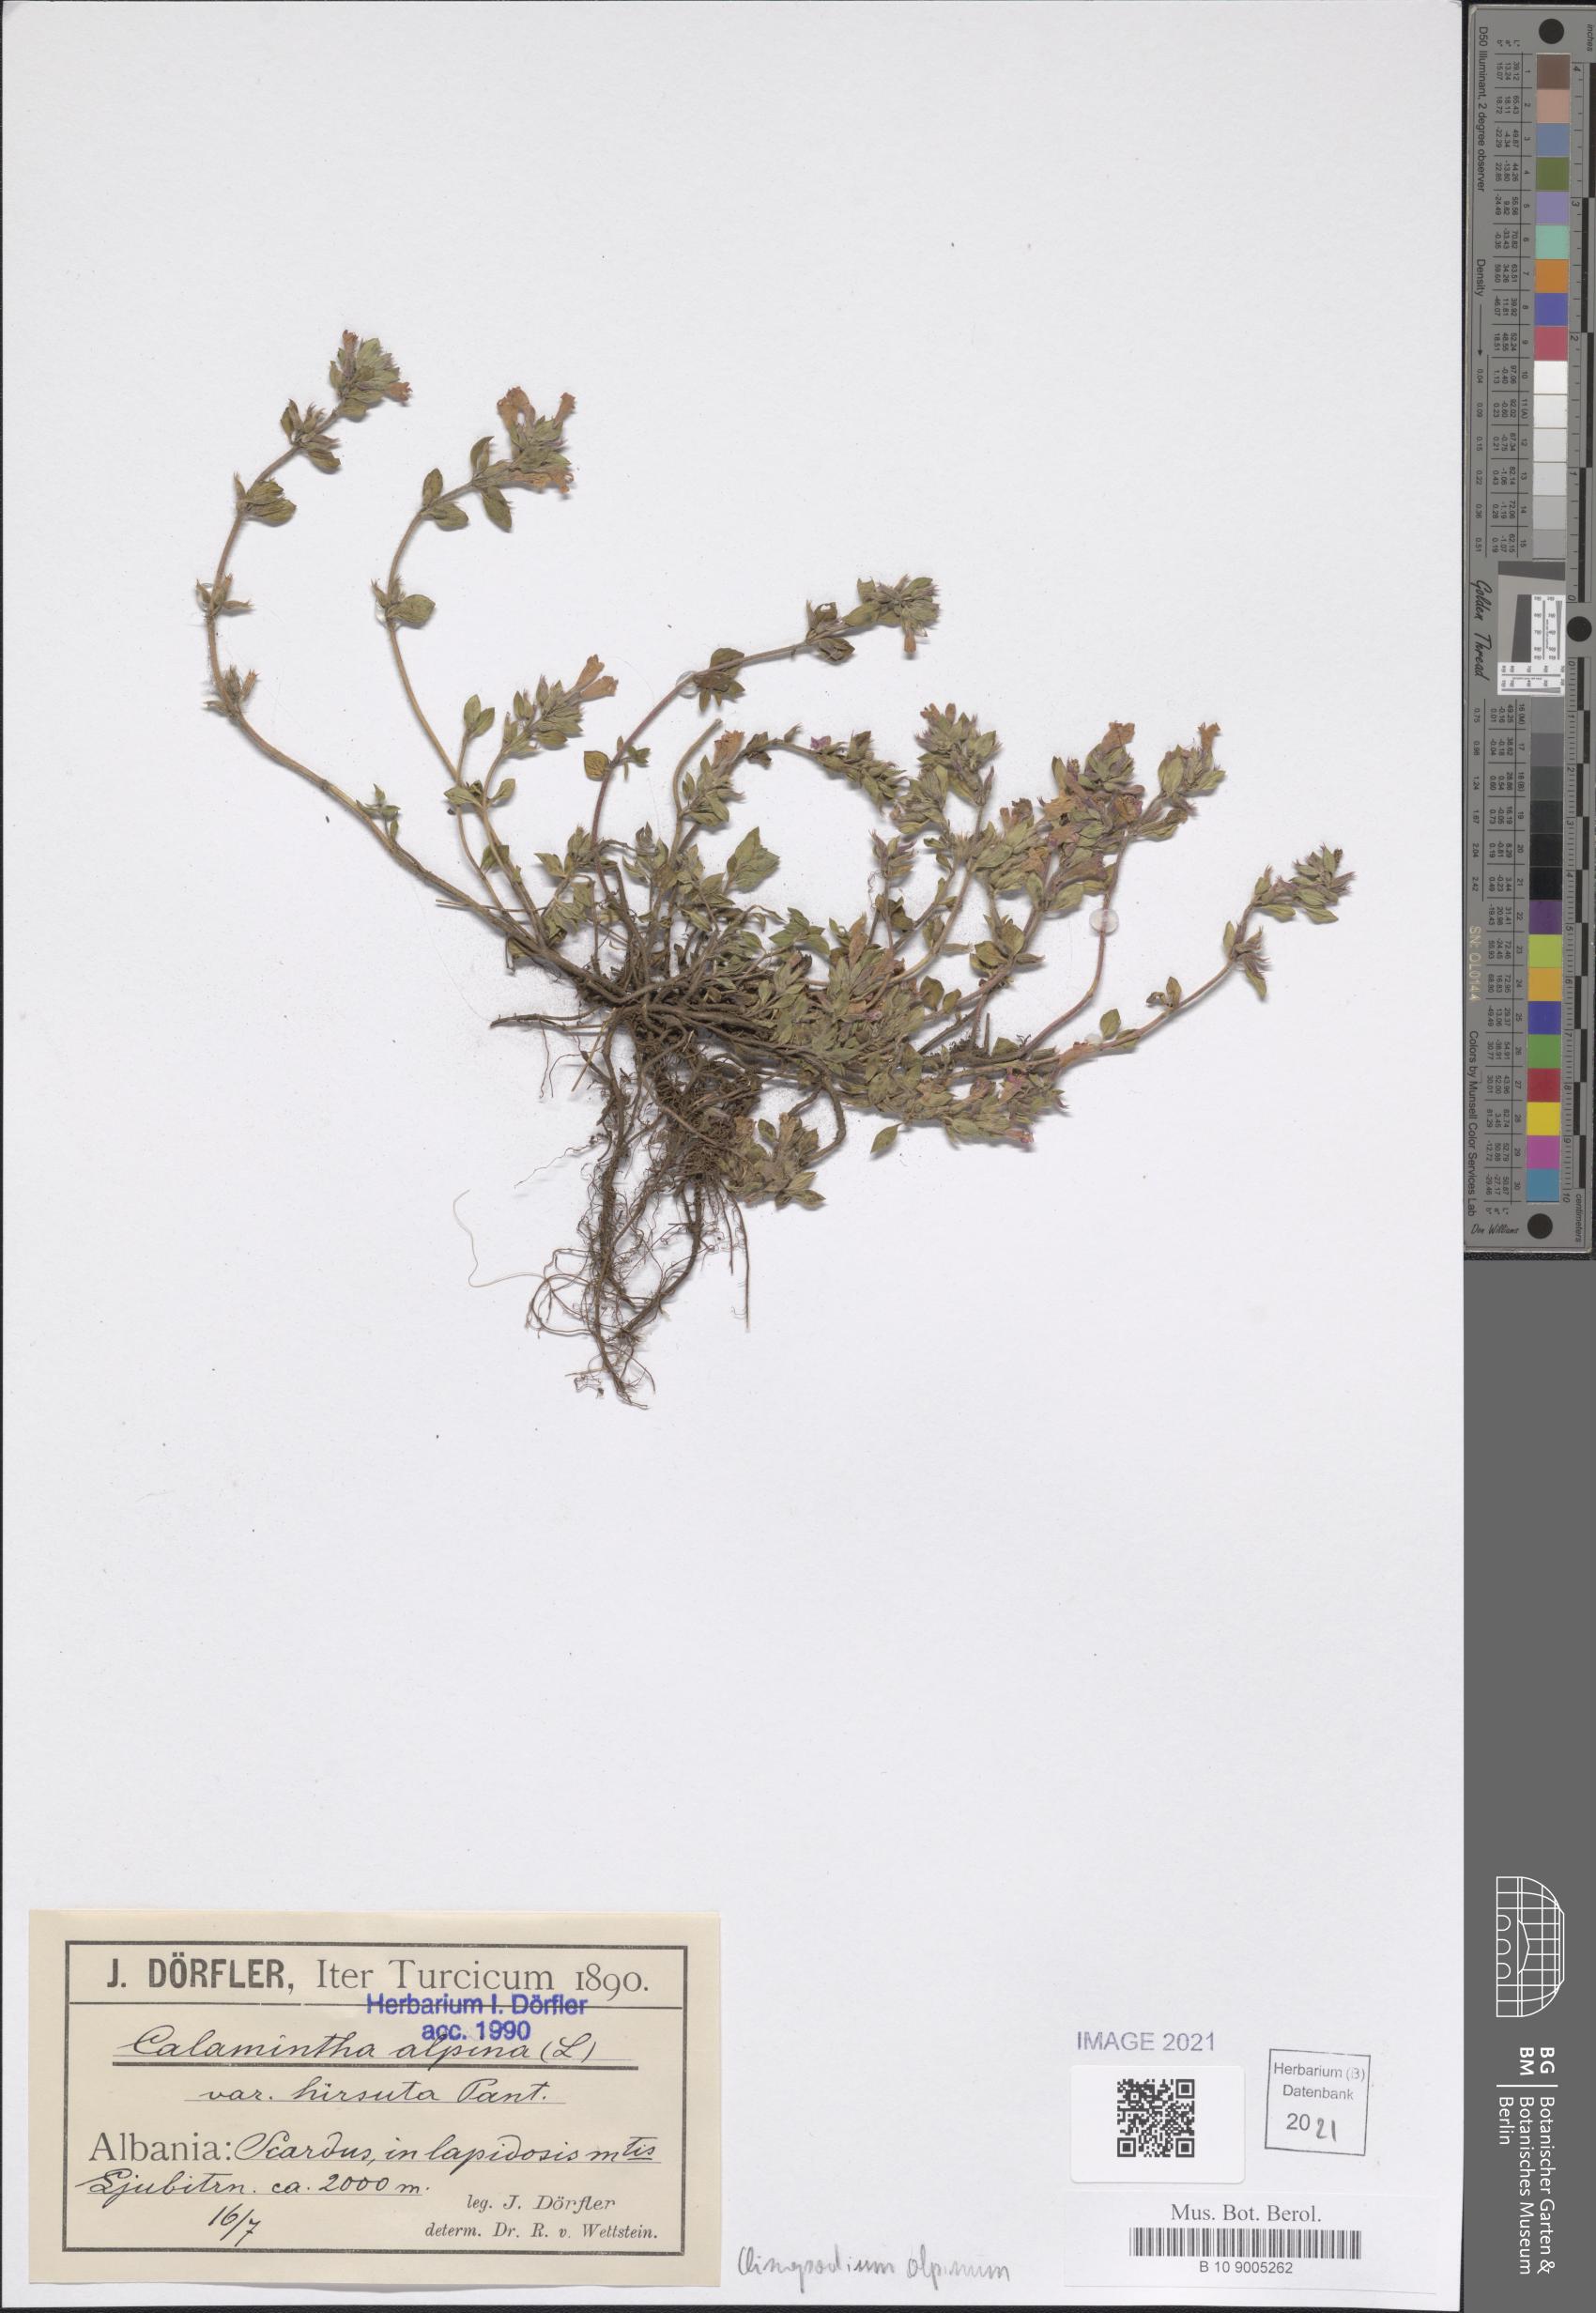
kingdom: Plantae
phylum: Tracheophyta
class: Magnoliopsida
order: Lamiales
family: Lamiaceae
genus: Clinopodium
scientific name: Clinopodium alpinum
